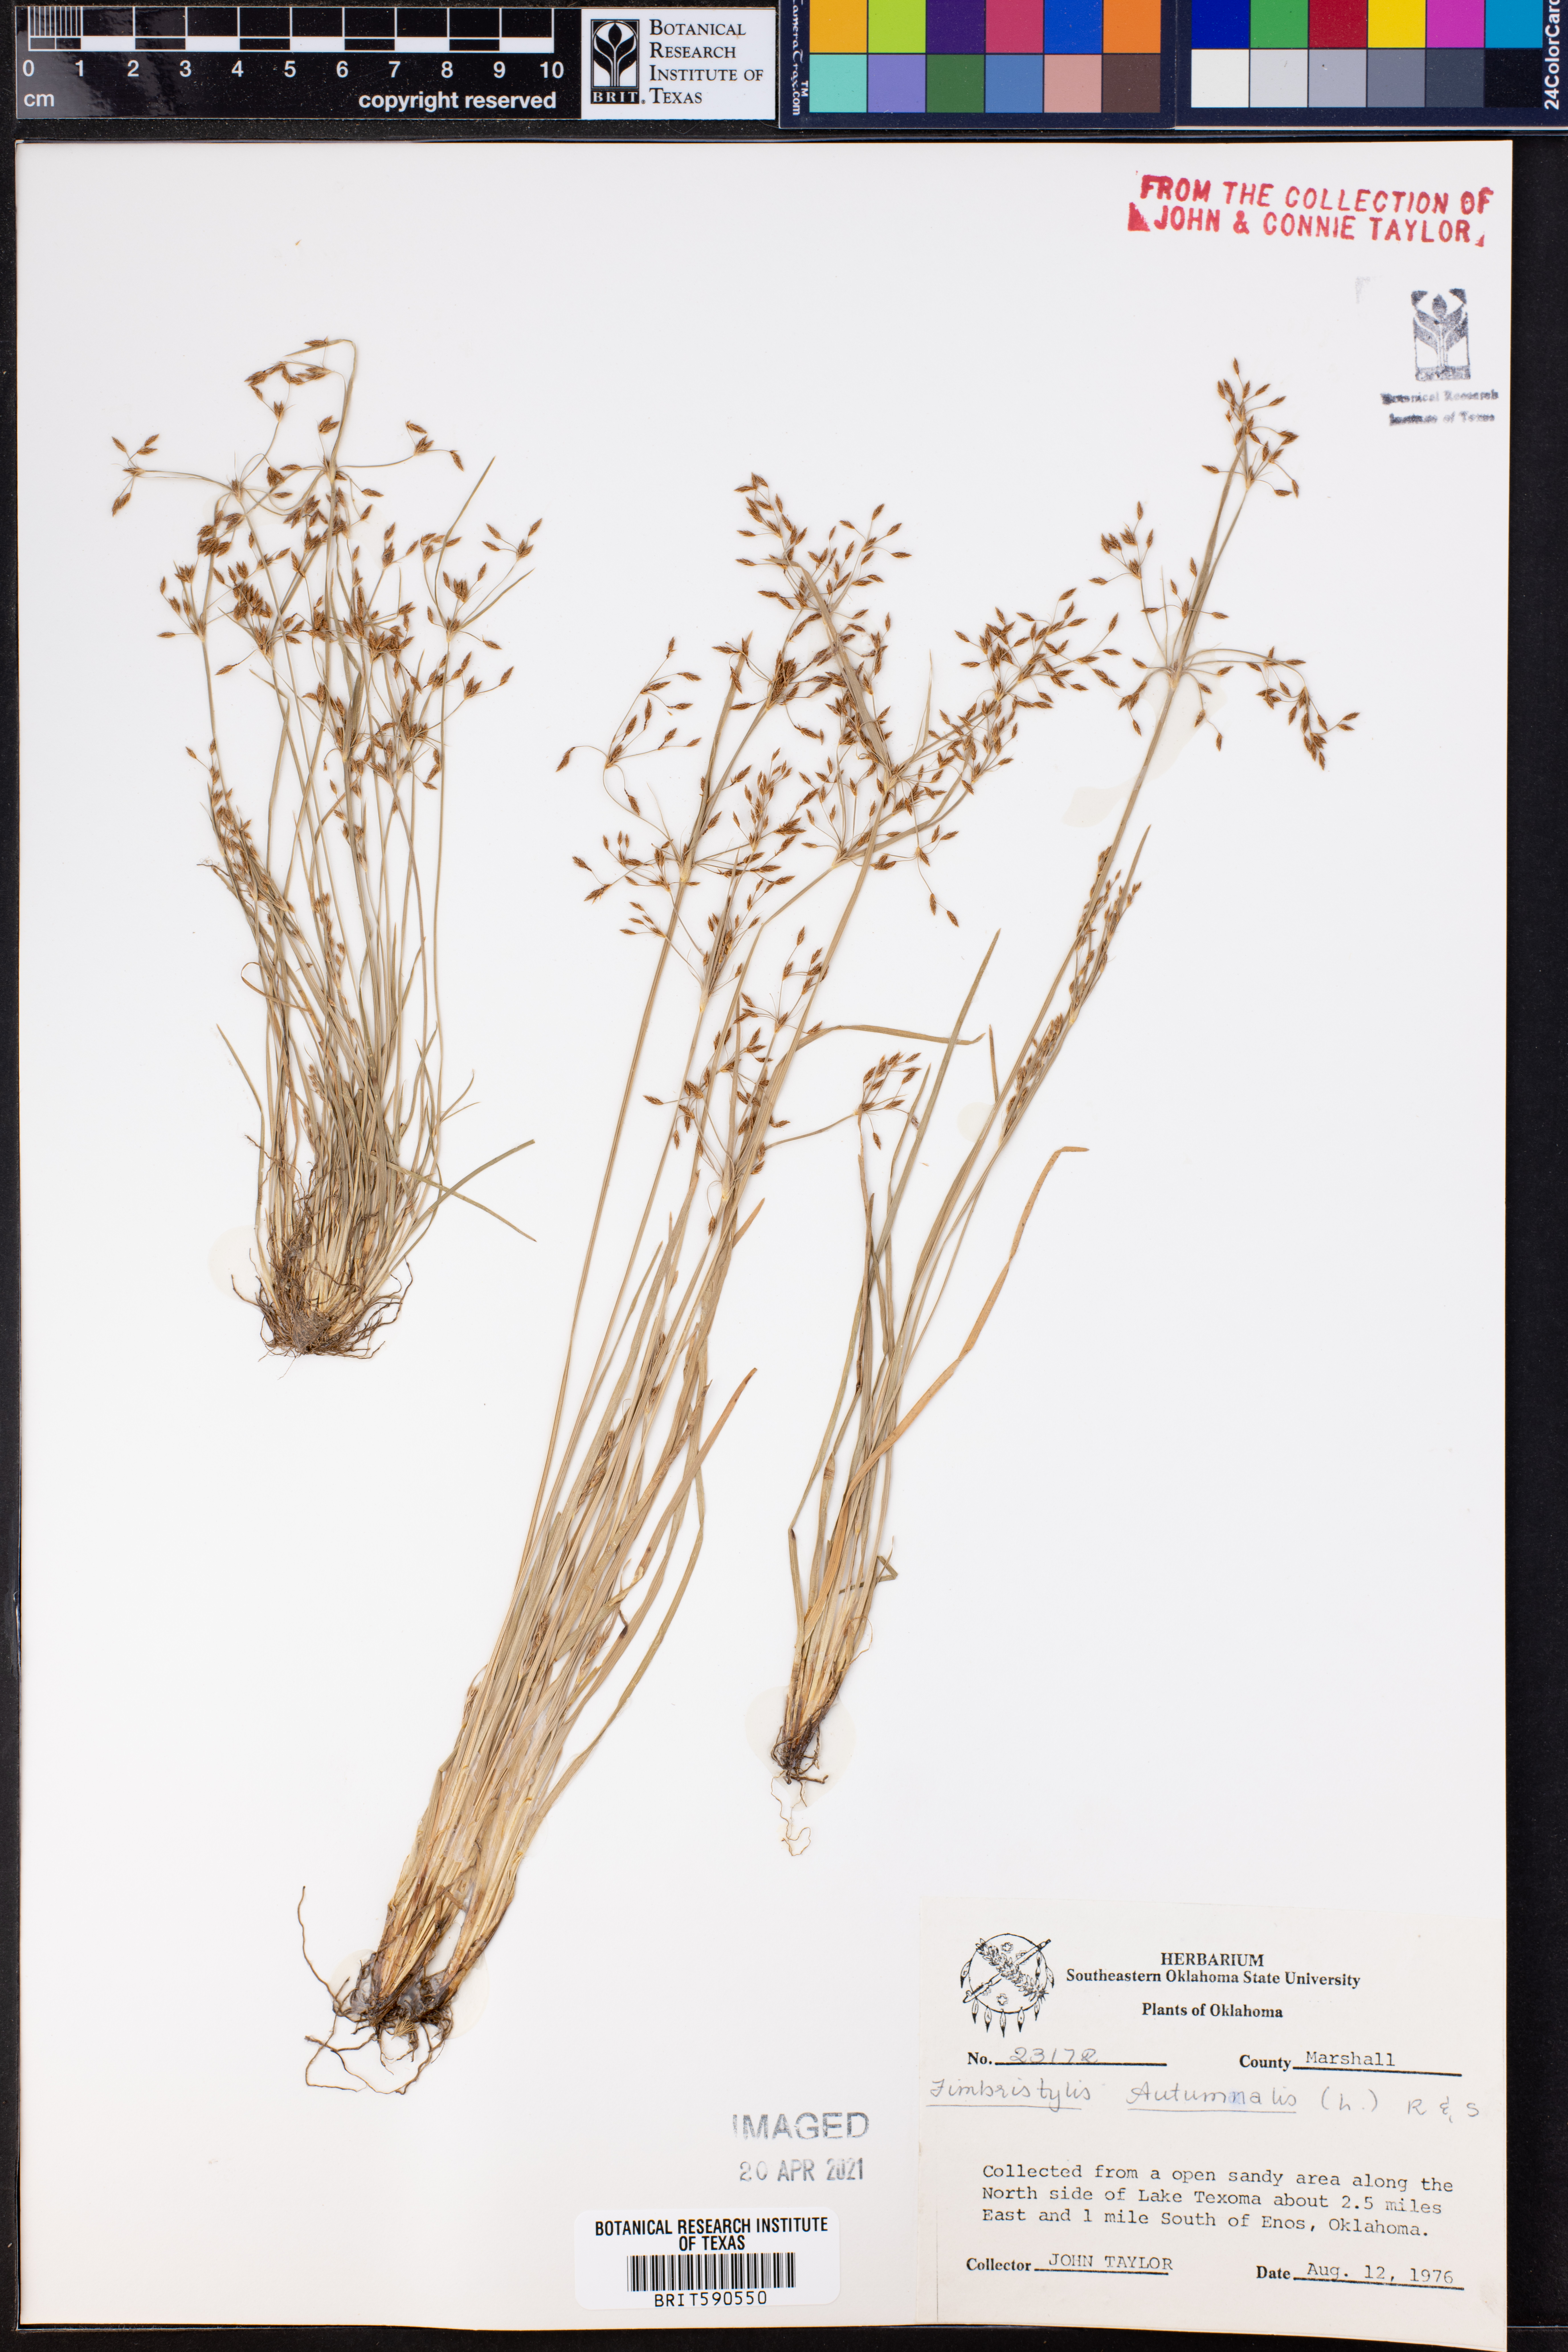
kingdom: Plantae
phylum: Tracheophyta
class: Liliopsida
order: Poales
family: Cyperaceae
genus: Fimbristylis
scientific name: Fimbristylis autumnalis
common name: Slender fimbristylis
